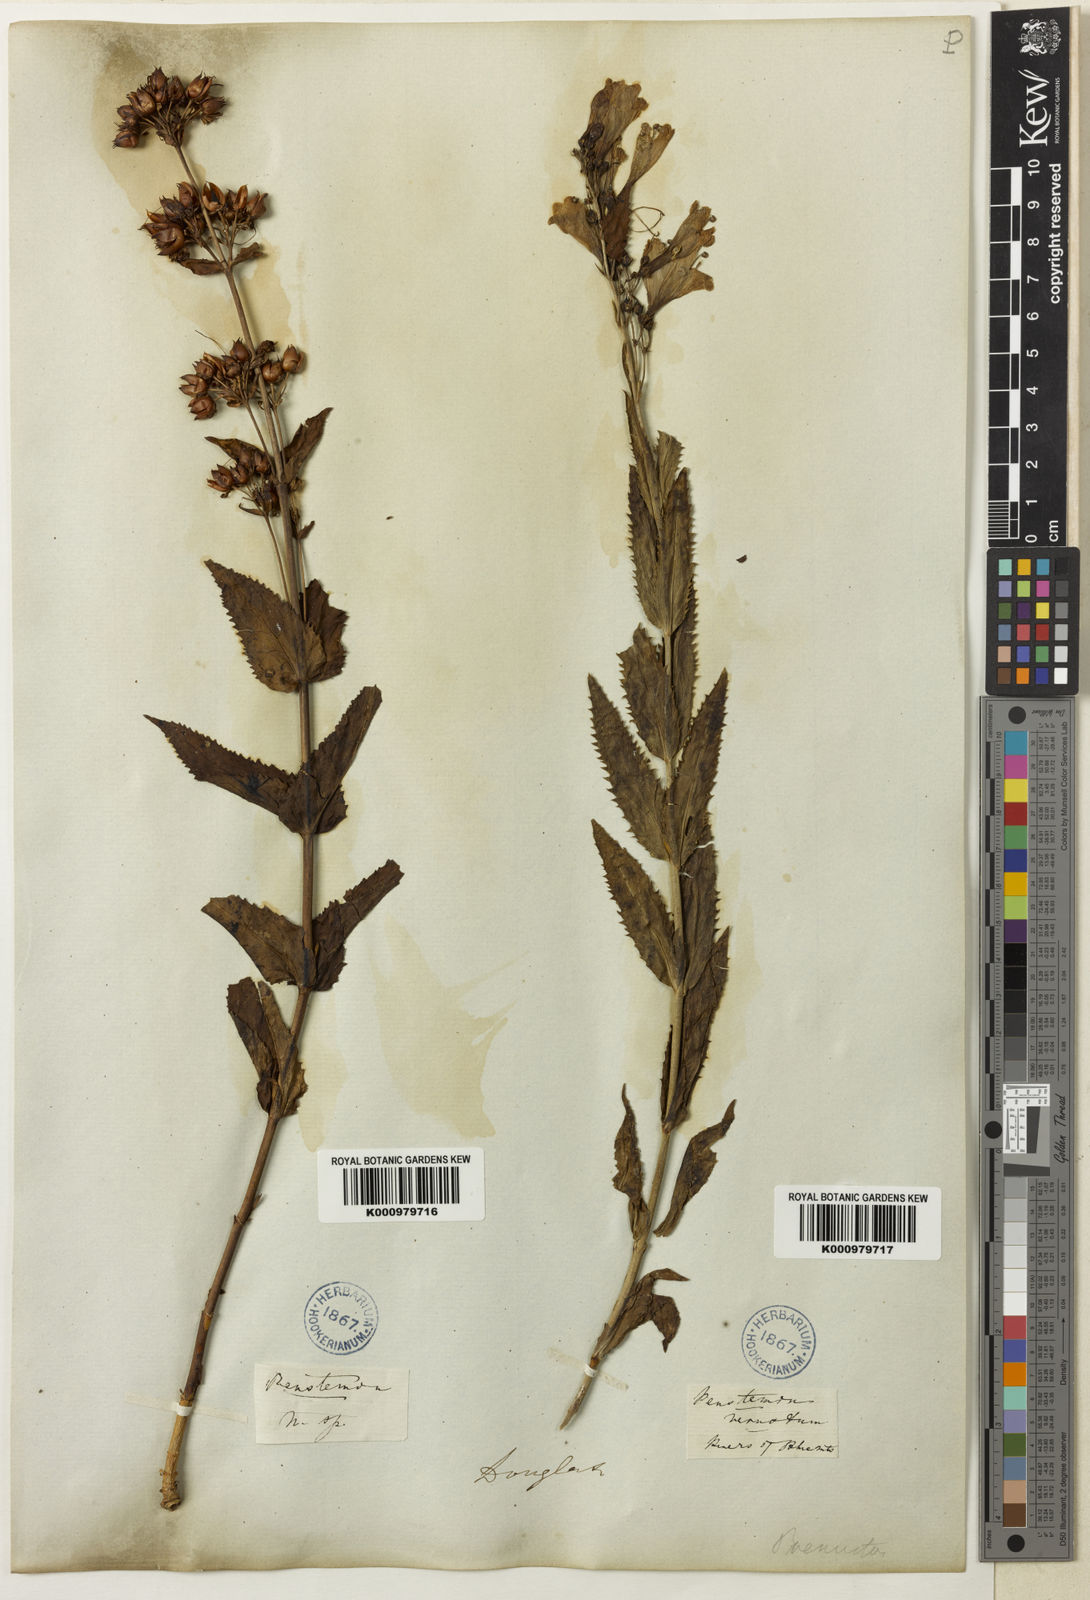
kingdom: Plantae
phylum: Tracheophyta
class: Magnoliopsida
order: Lamiales
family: Plantaginaceae
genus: Penstemon
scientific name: Penstemon
